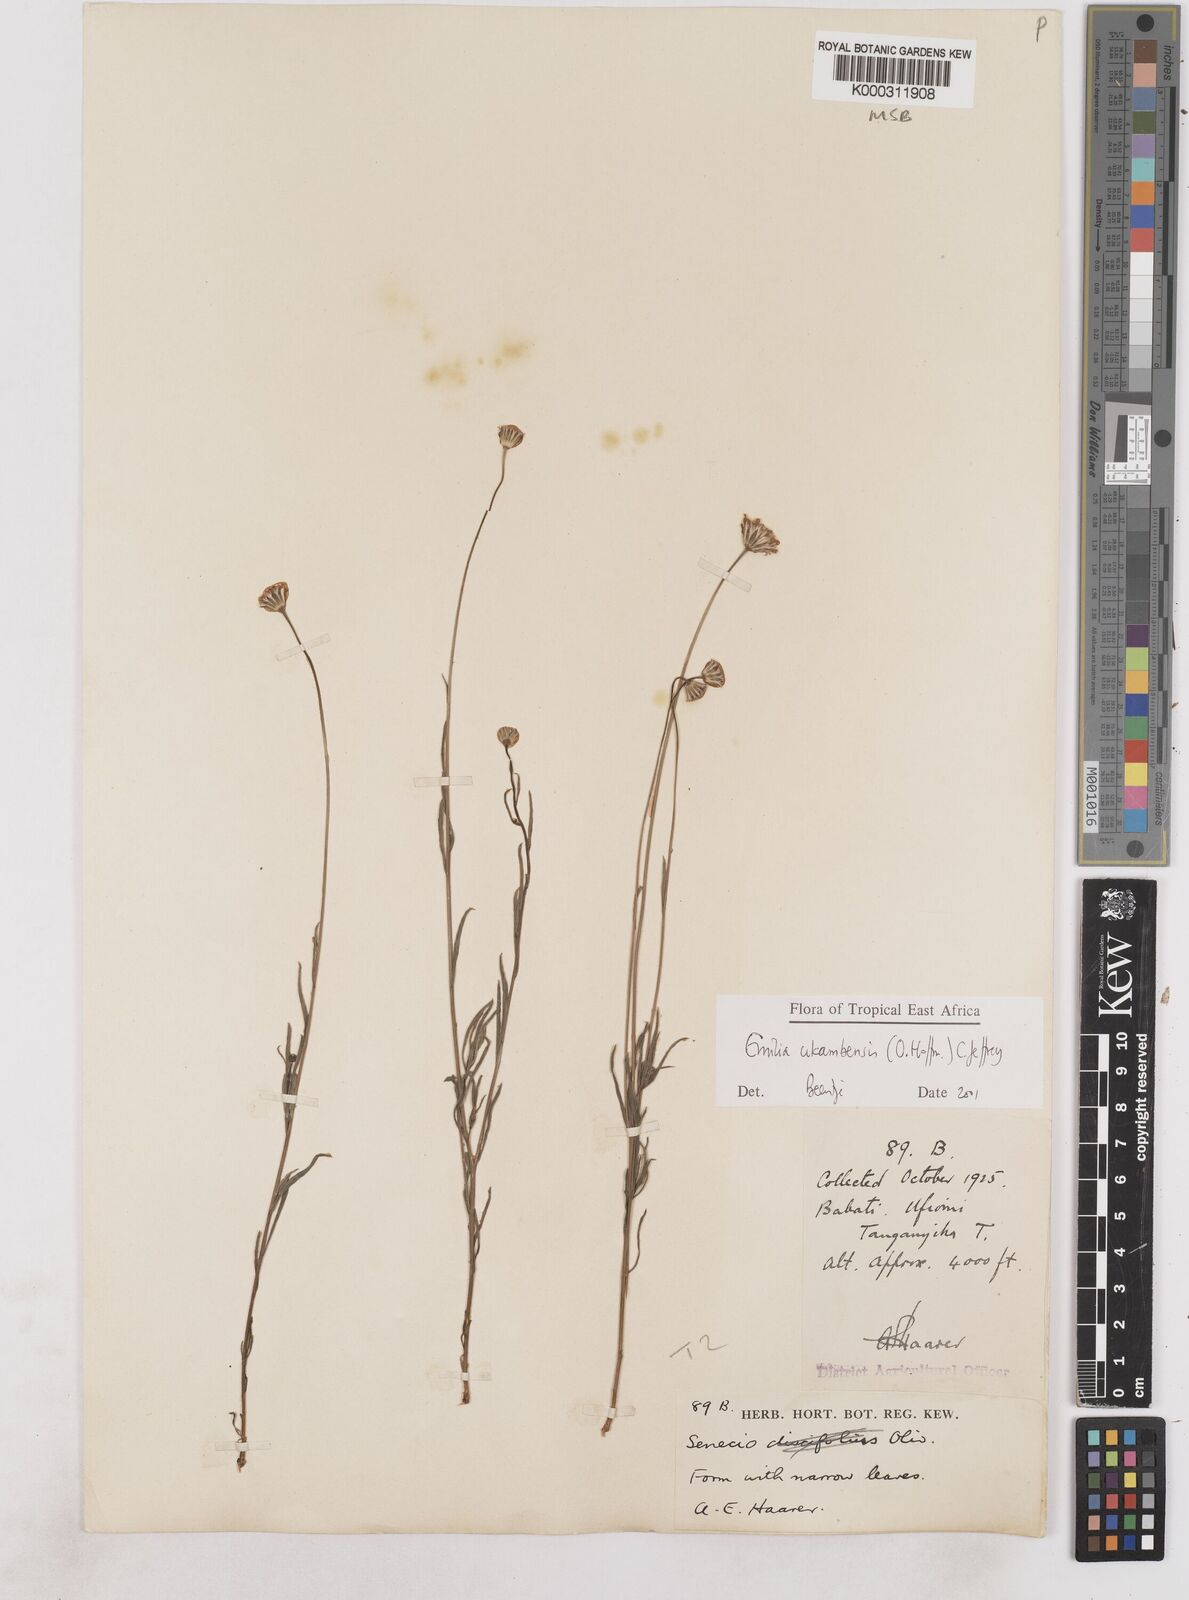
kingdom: Plantae
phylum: Tracheophyta
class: Magnoliopsida
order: Asterales
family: Asteraceae
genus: Emilia
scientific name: Emilia ukambensis
